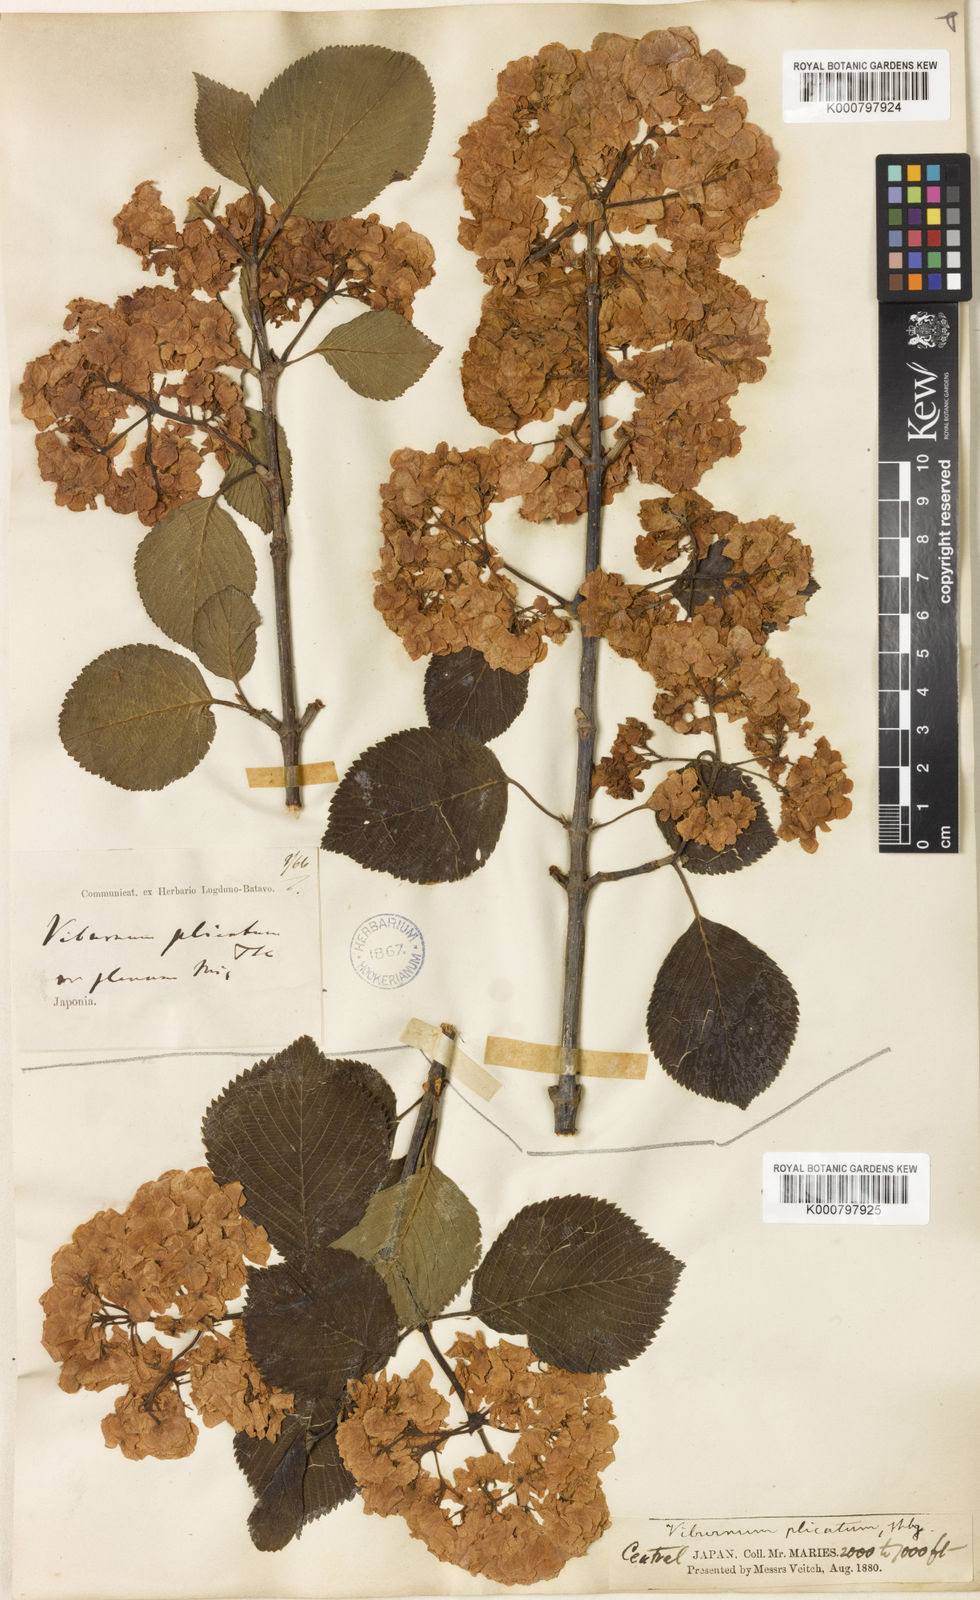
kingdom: Plantae
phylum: Tracheophyta
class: Magnoliopsida
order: Dipsacales
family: Viburnaceae
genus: Viburnum
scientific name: Viburnum
